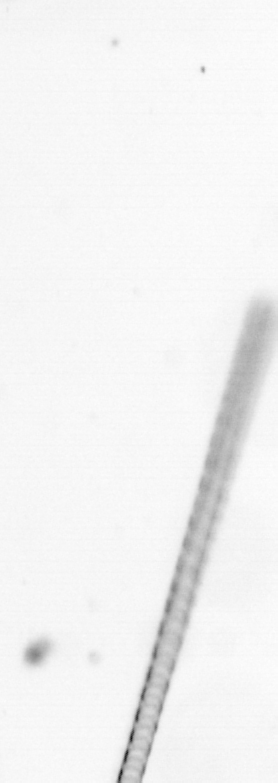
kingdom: Chromista
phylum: Ochrophyta
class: Bacillariophyceae
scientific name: Bacillariophyceae
